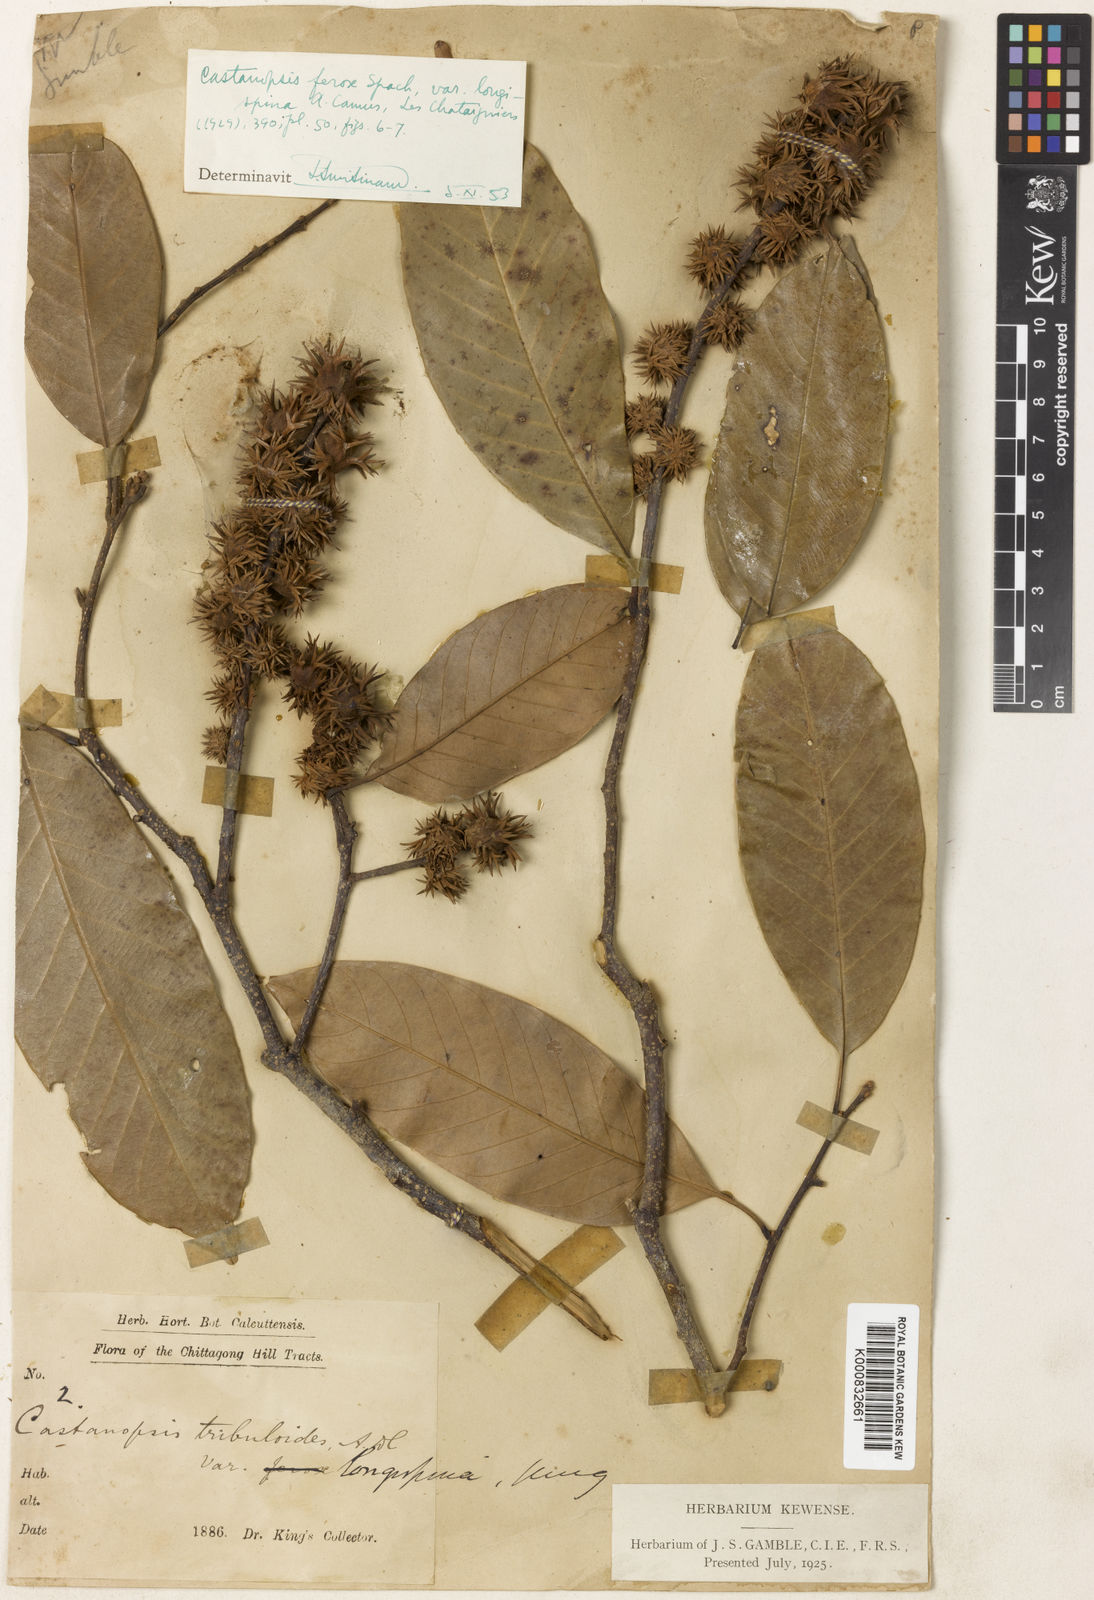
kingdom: Plantae
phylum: Tracheophyta
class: Magnoliopsida
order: Fagales
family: Fagaceae
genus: Castanopsis
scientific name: Castanopsis ferox
